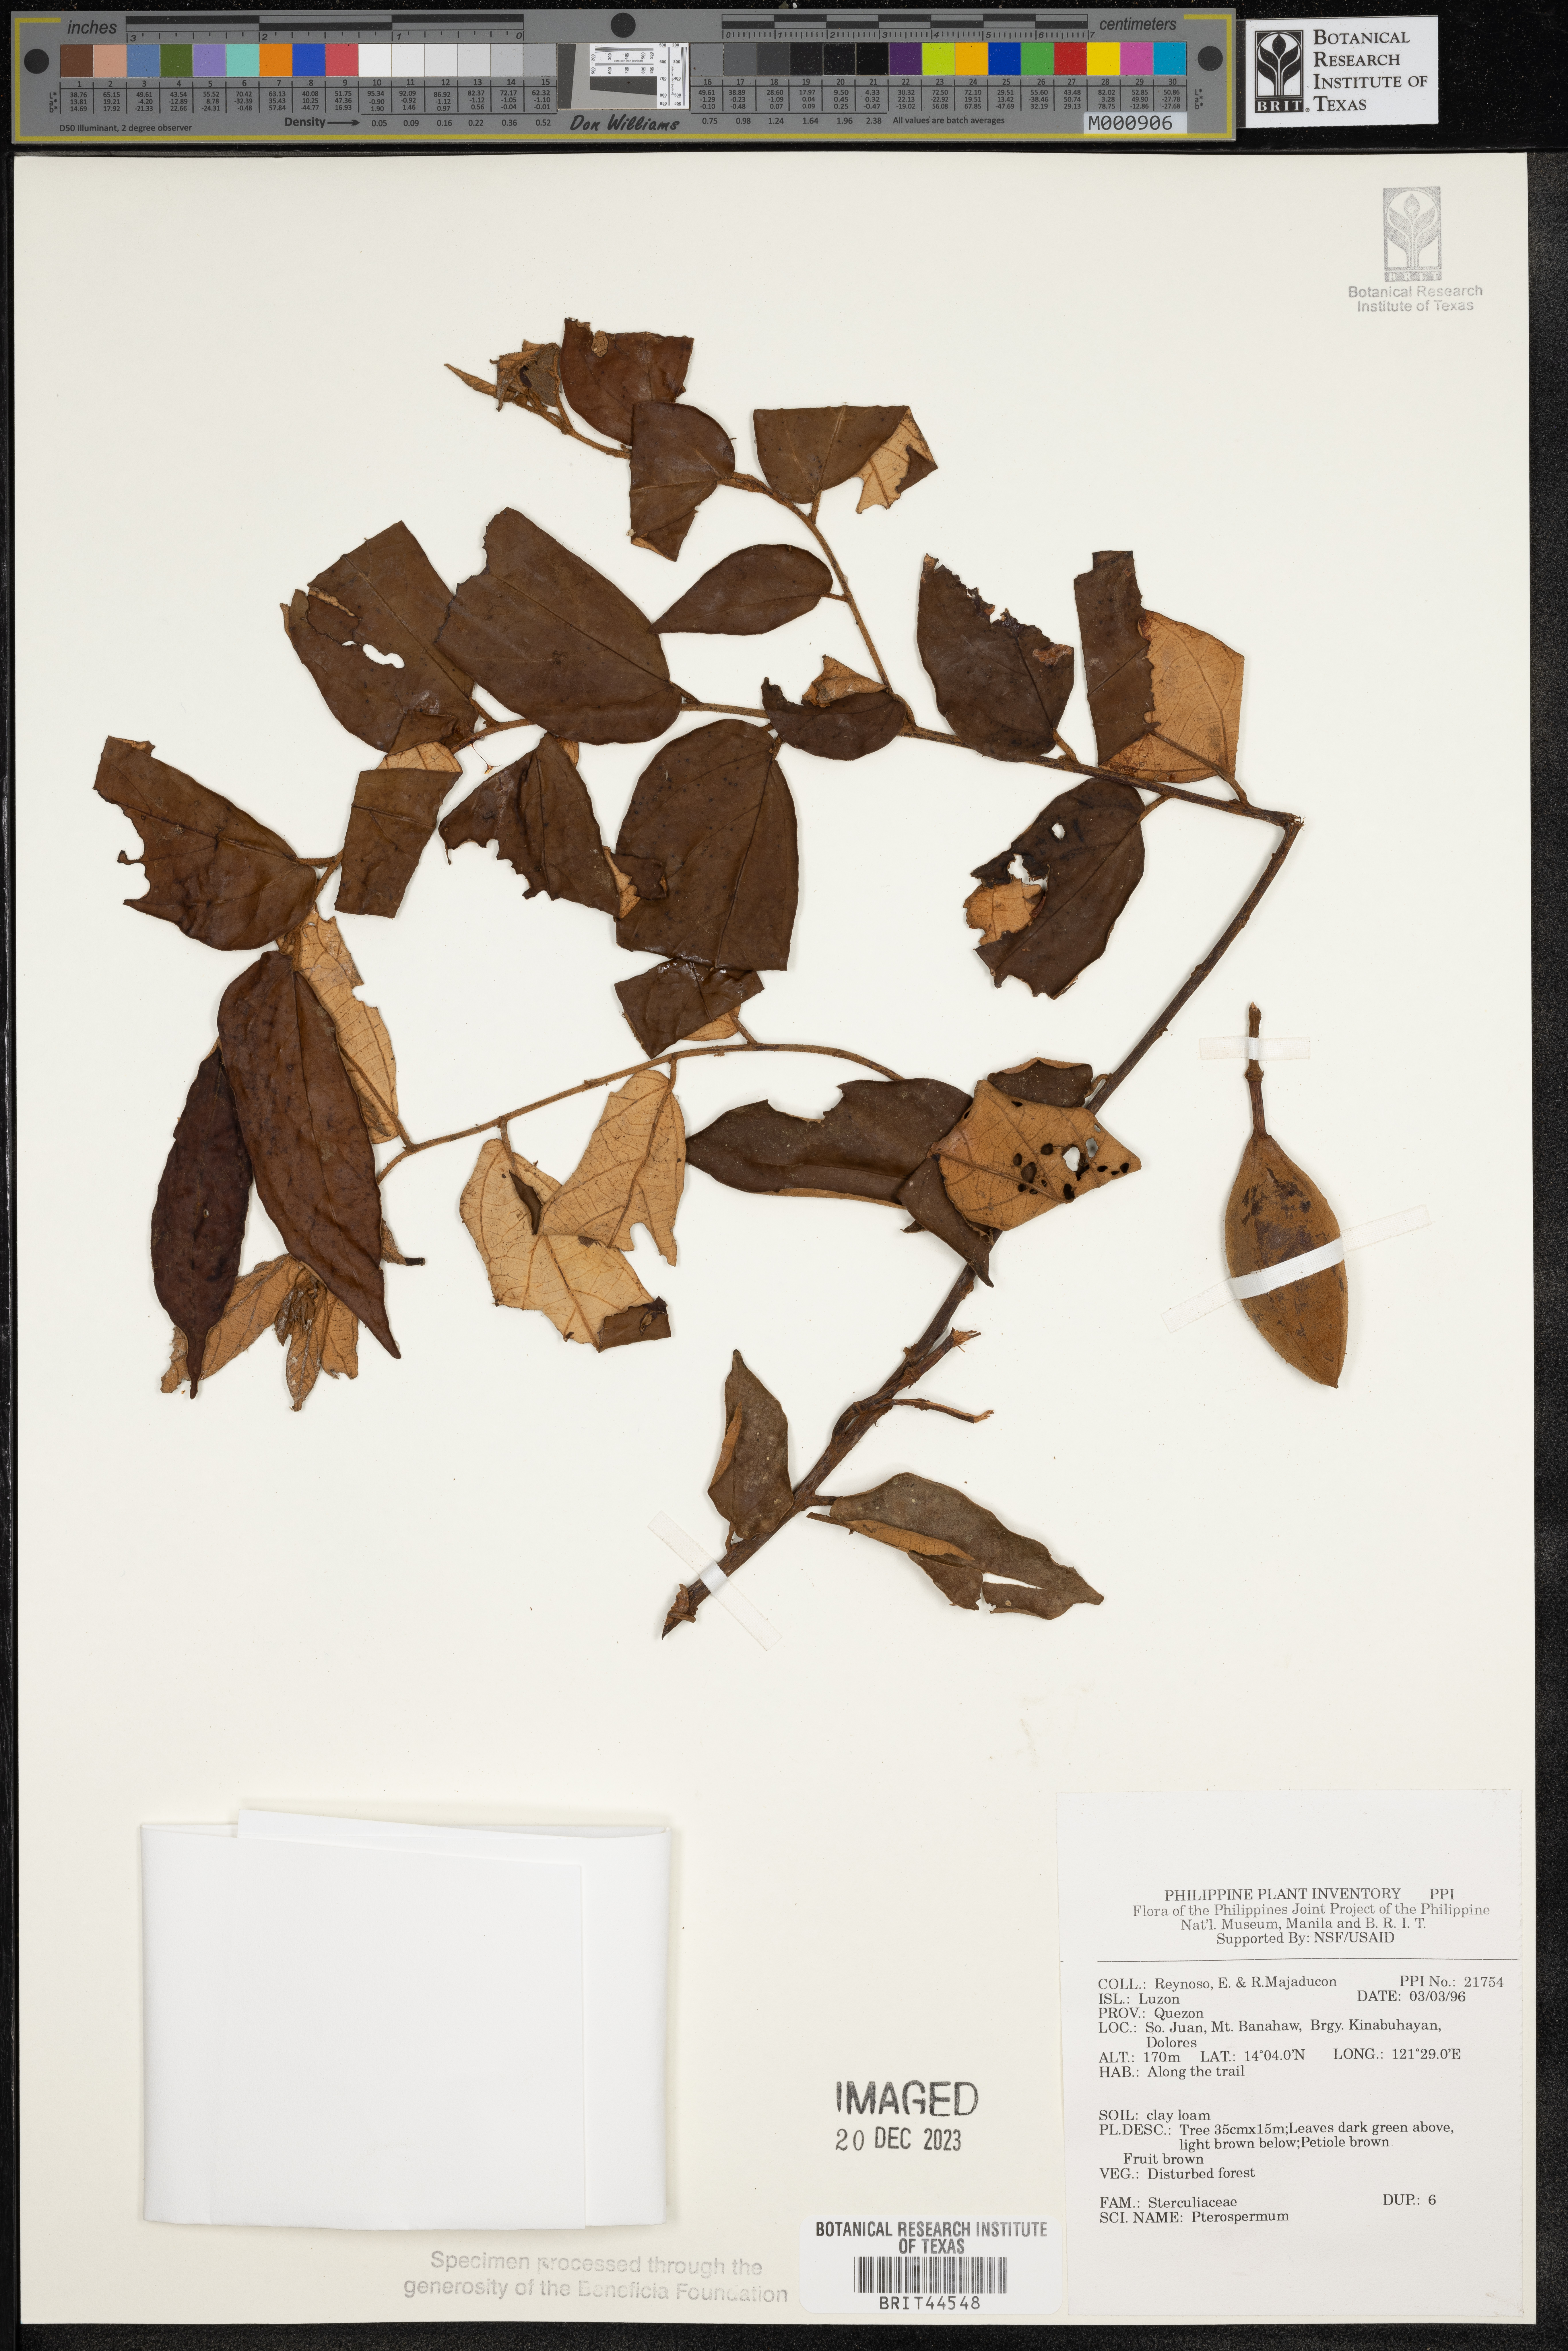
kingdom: Plantae
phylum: Tracheophyta
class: Magnoliopsida
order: Malvales
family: Malvaceae
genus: Pterospermum
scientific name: Pterospermum
